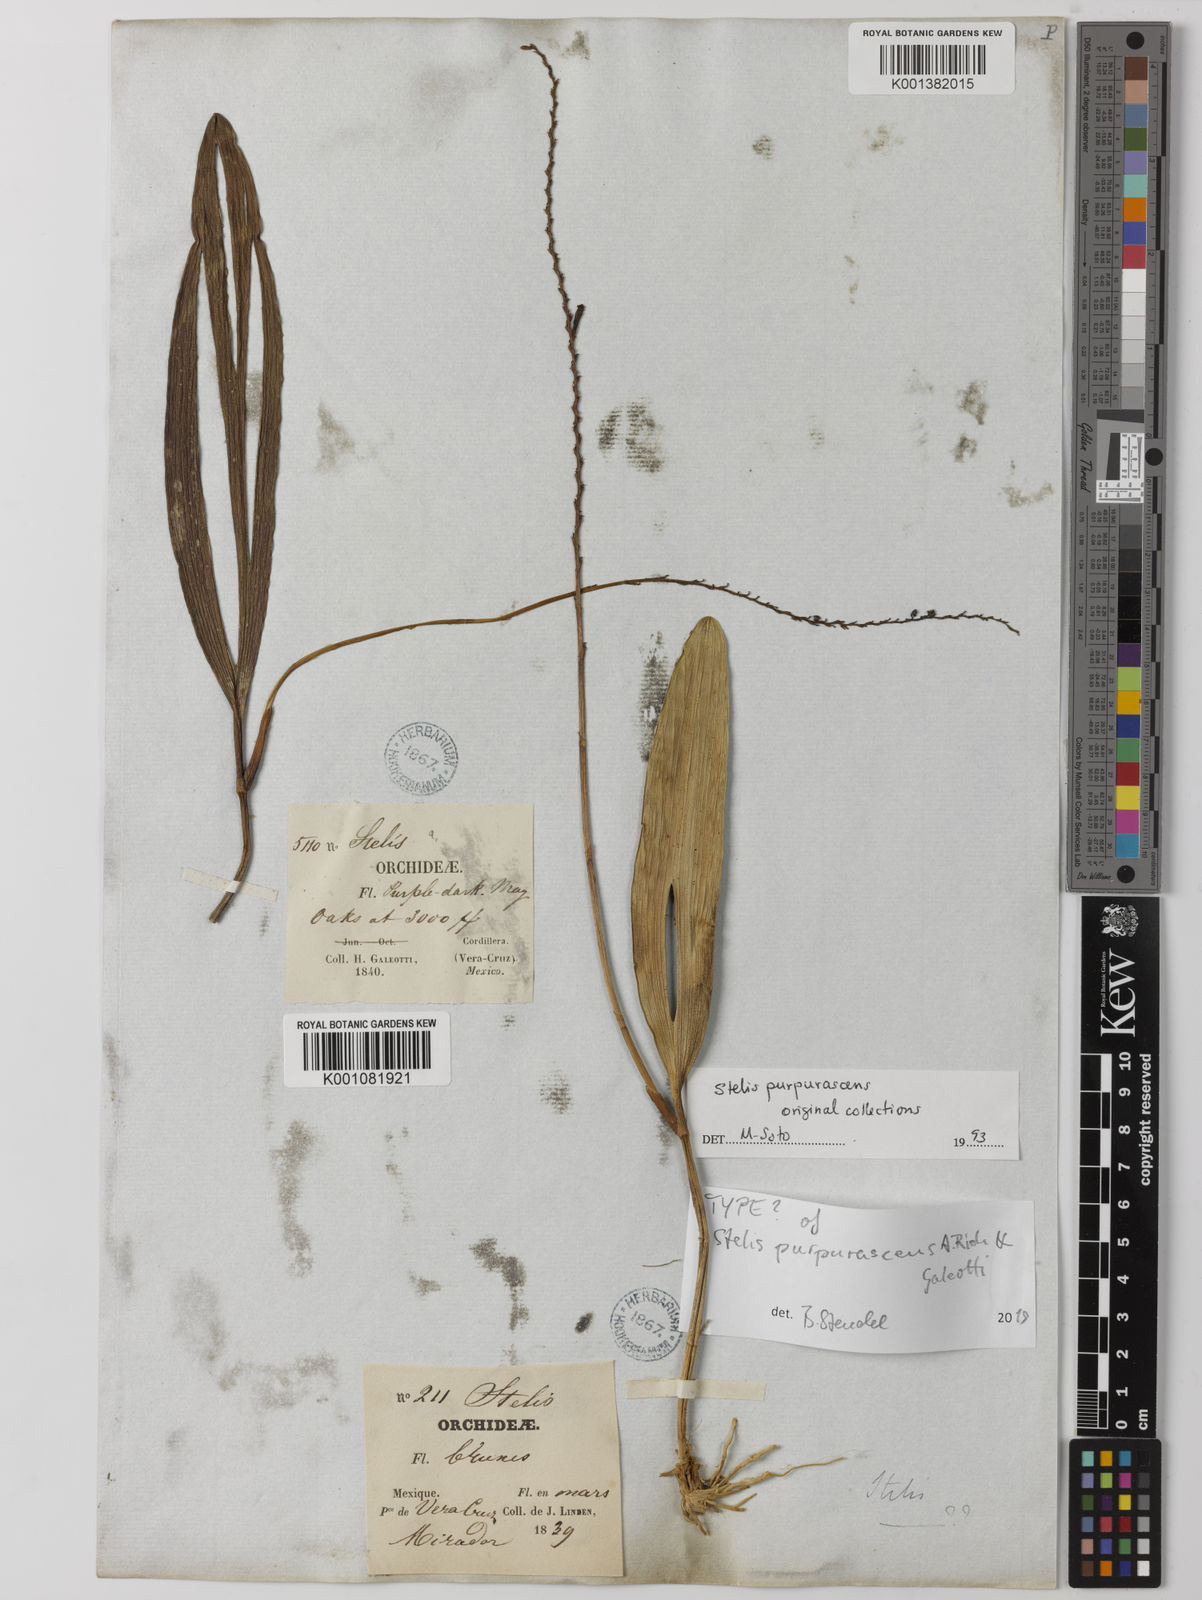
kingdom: Plantae
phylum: Tracheophyta
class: Liliopsida
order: Asparagales
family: Orchidaceae
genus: Stelis
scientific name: Stelis purpurascens
